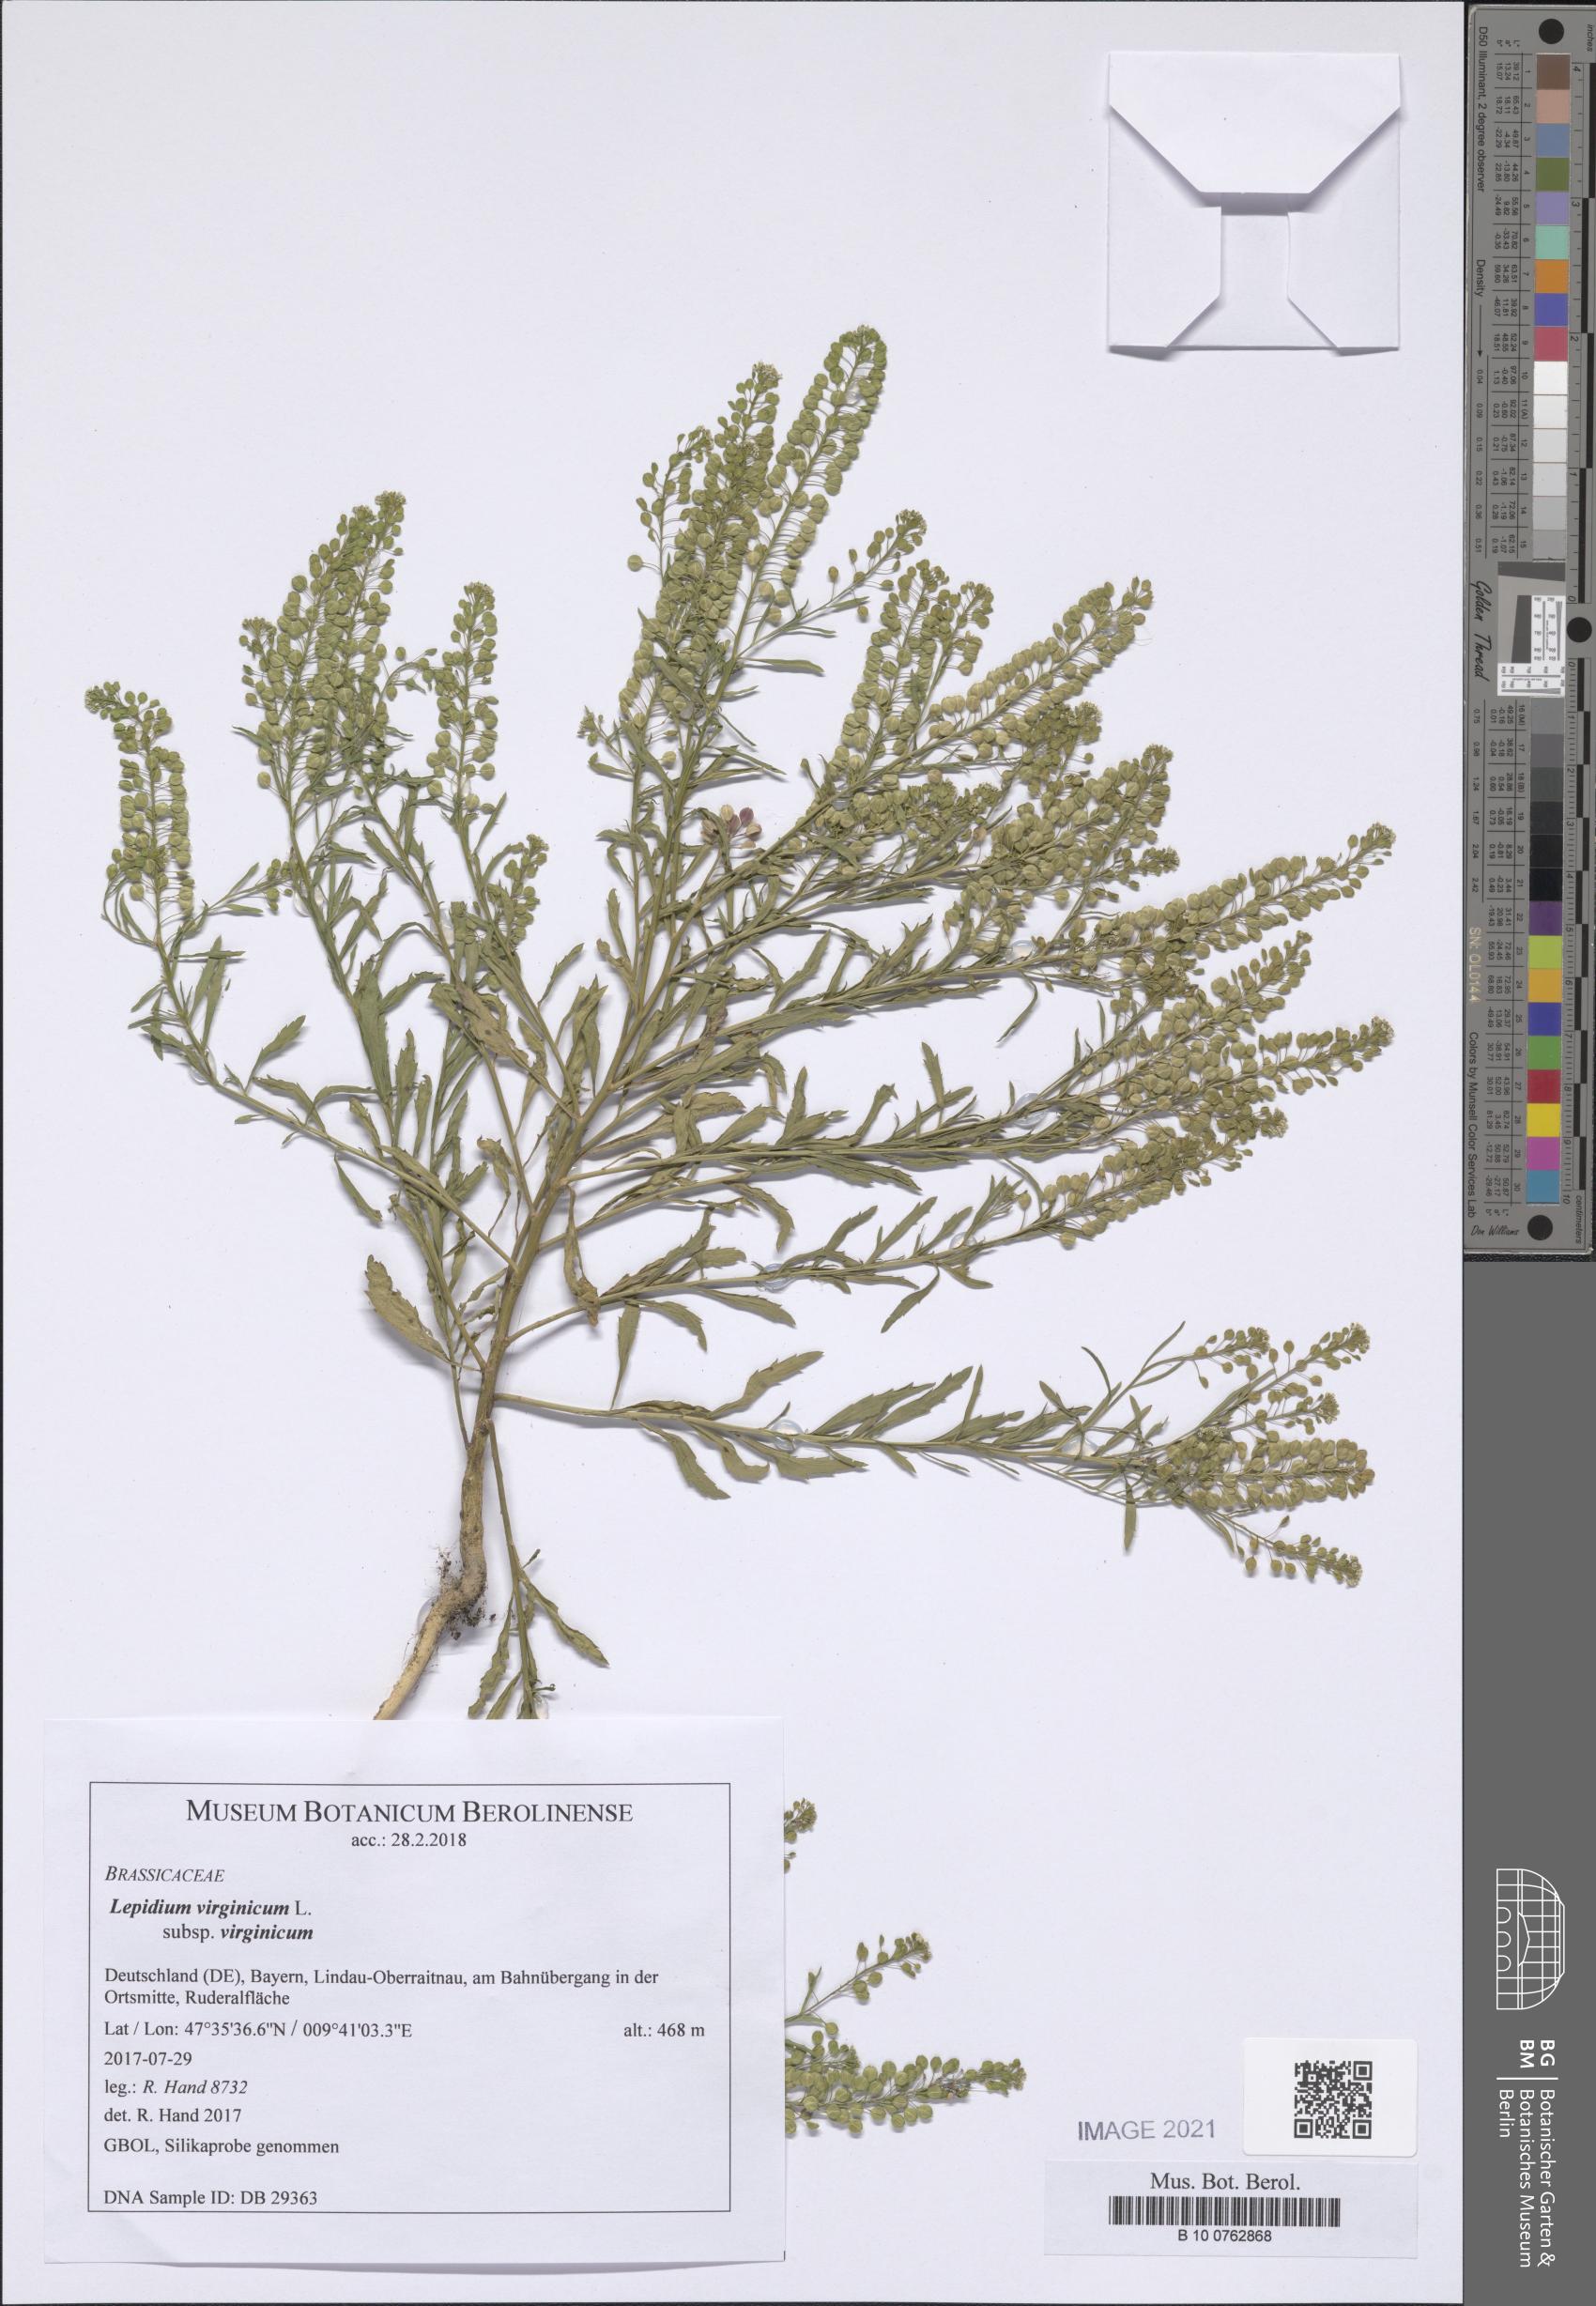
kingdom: Plantae
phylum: Tracheophyta
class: Magnoliopsida
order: Brassicales
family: Brassicaceae
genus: Lepidium
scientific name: Lepidium virginicum
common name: Least pepperwort
